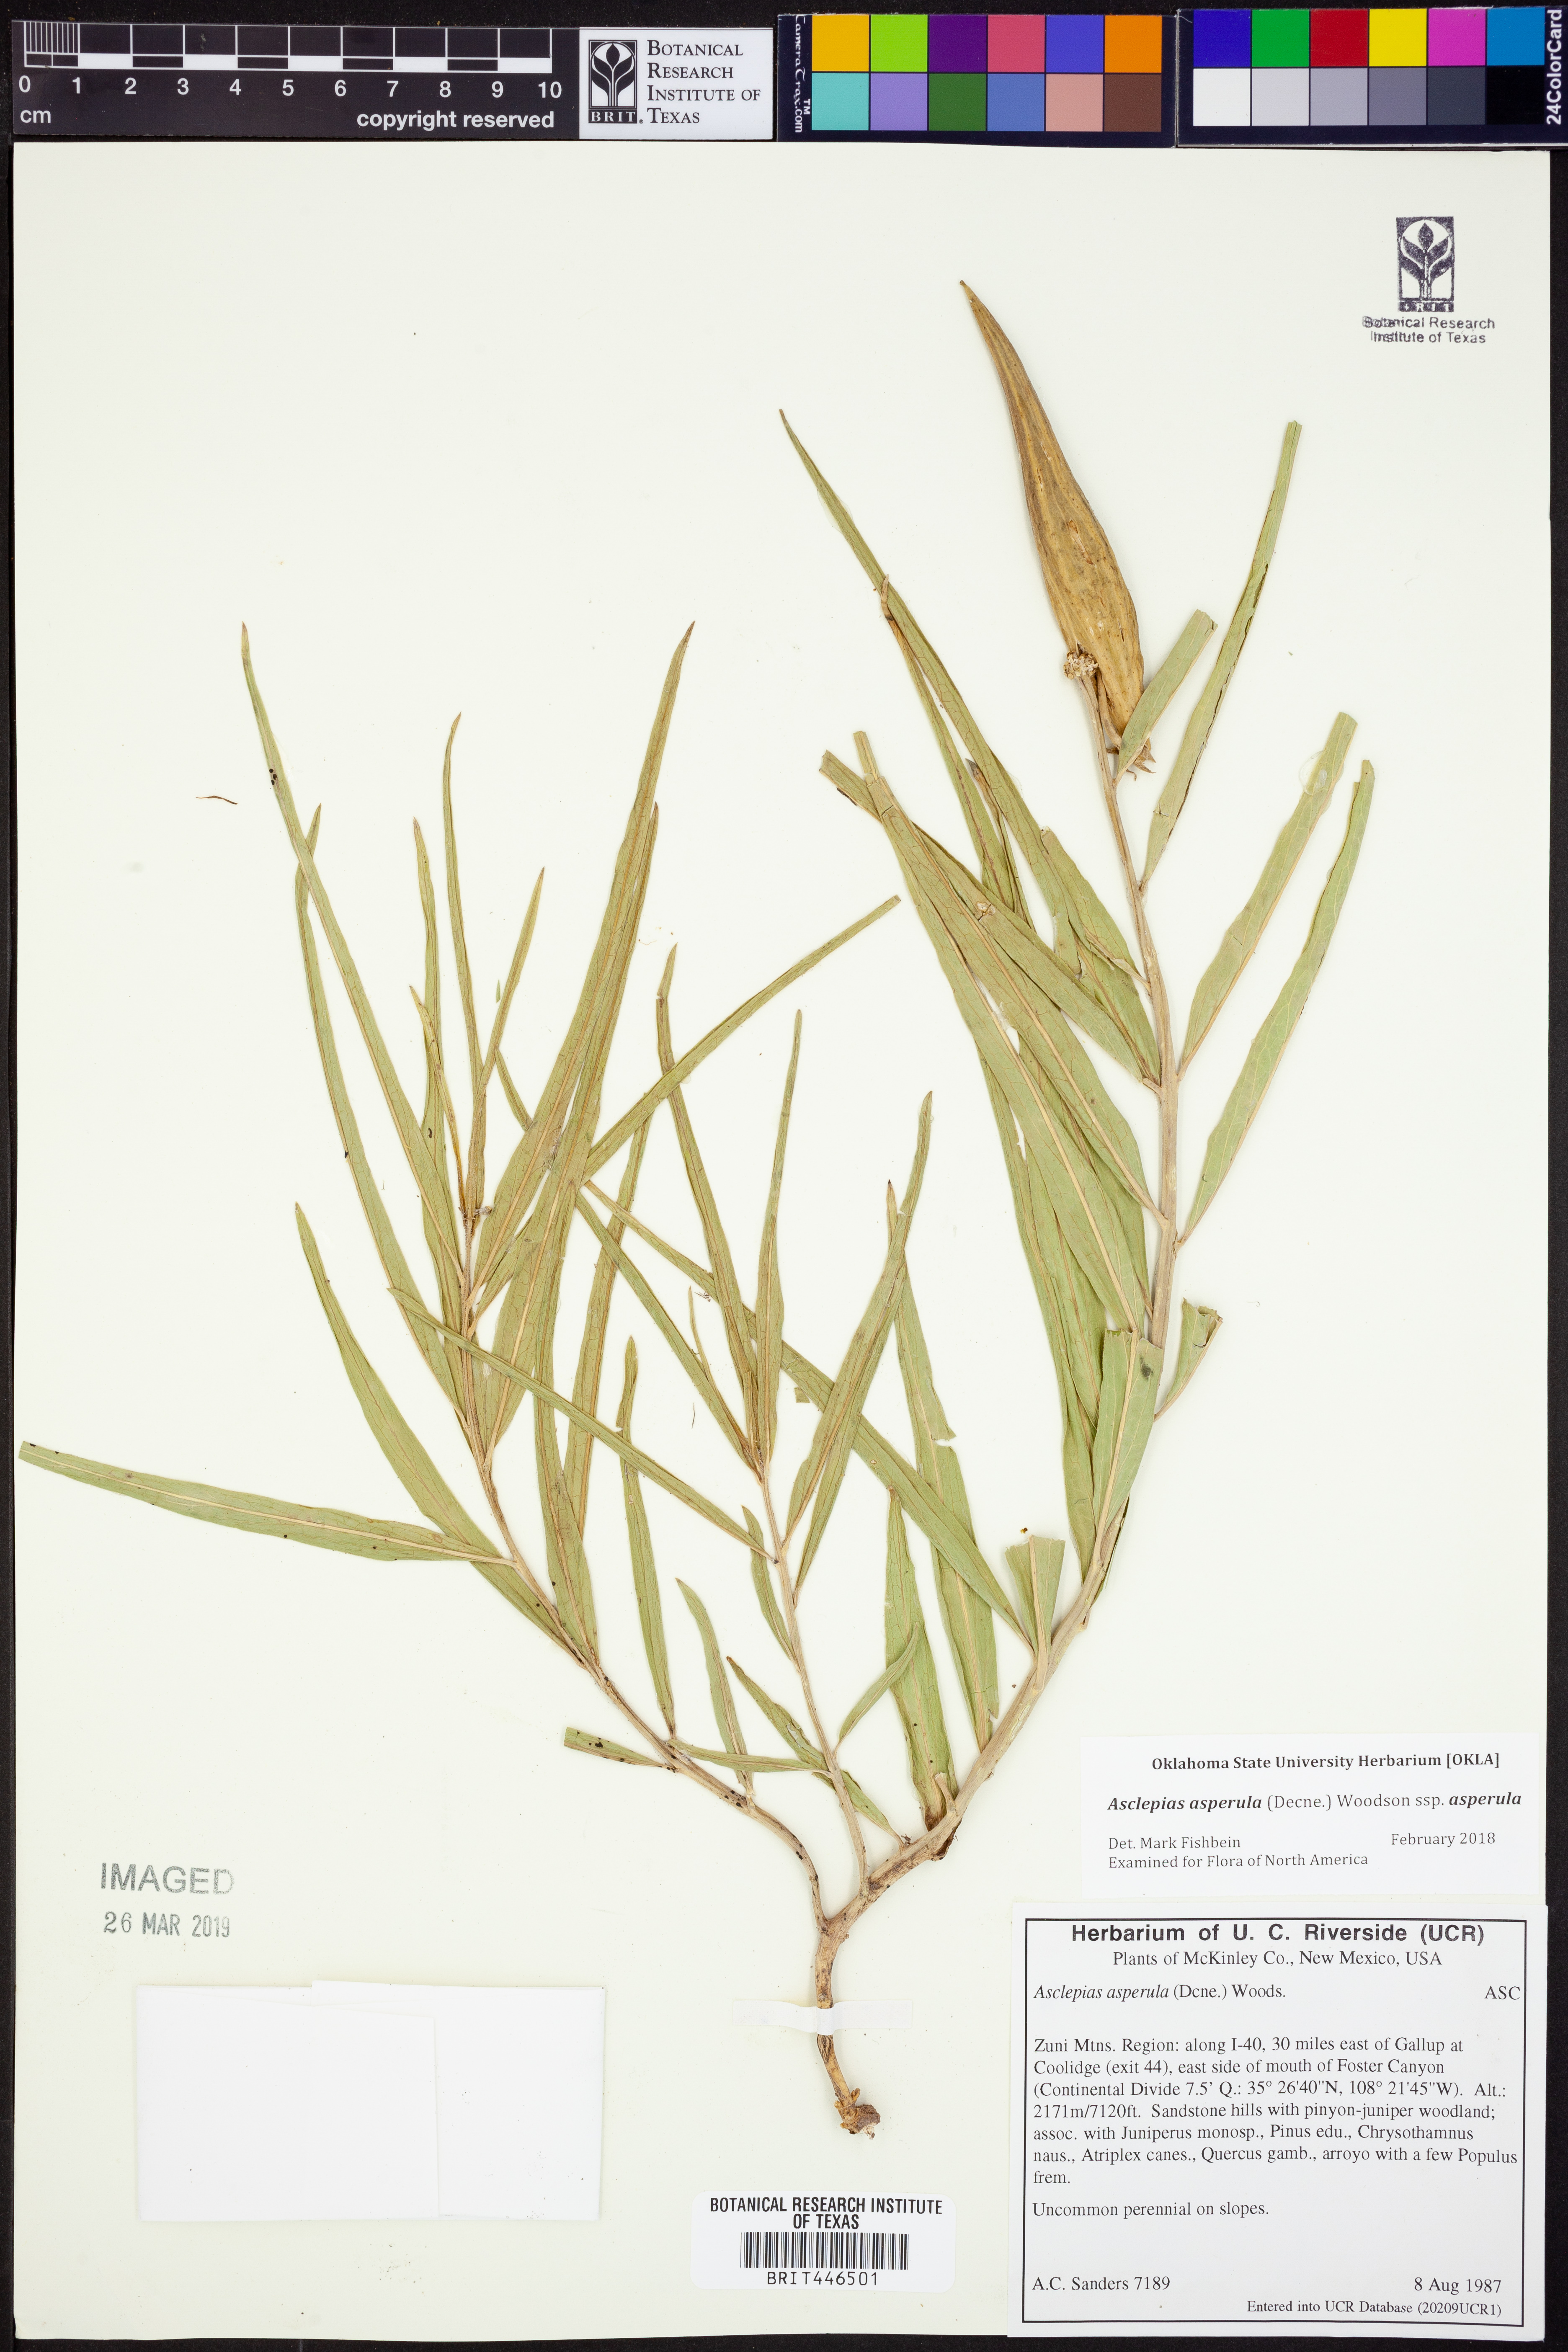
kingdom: Plantae
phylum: Tracheophyta
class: Magnoliopsida
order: Gentianales
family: Apocynaceae
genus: Asclepias
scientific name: Asclepias asperula
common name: Antelope horns
